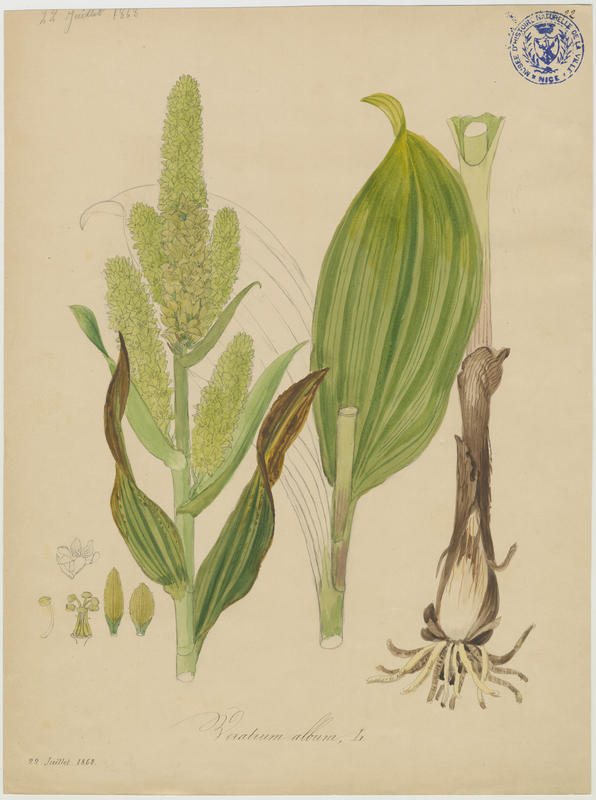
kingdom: Plantae
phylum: Tracheophyta
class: Liliopsida
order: Liliales
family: Melanthiaceae
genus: Veratrum
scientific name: Veratrum album
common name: White veratrum
